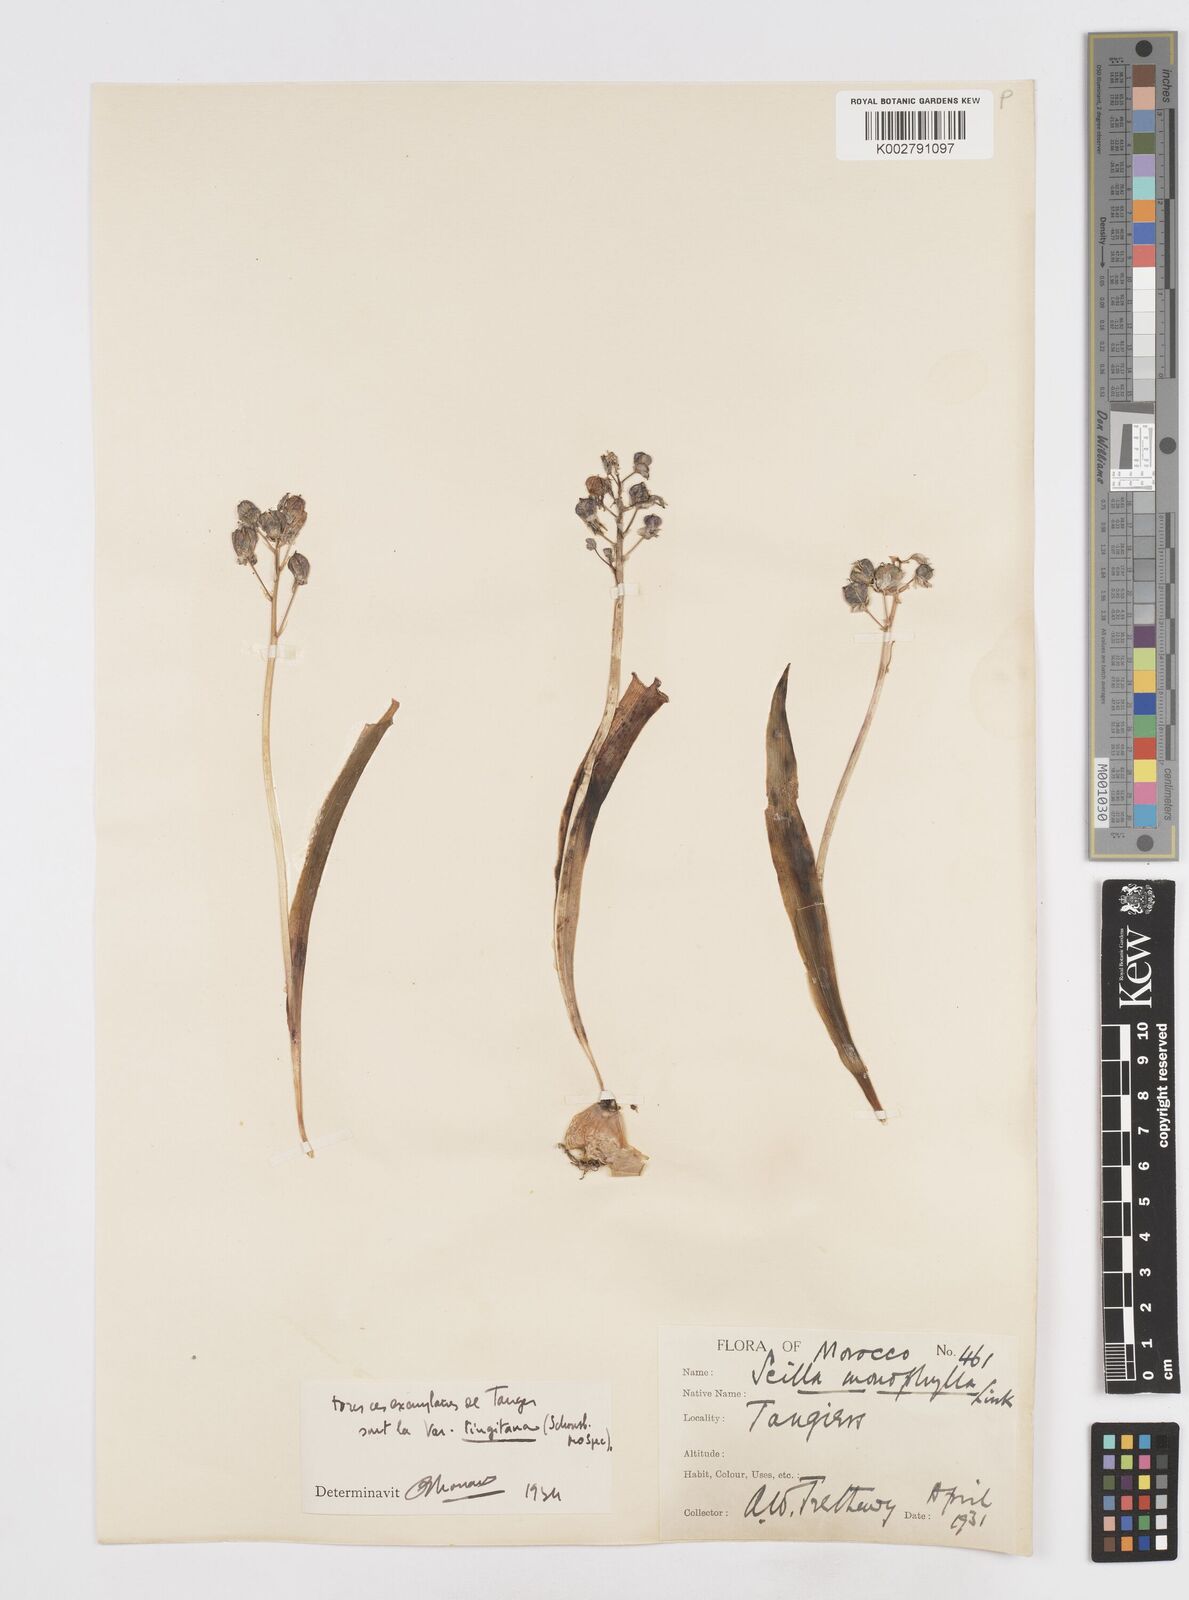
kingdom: Plantae
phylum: Tracheophyta
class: Liliopsida
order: Asparagales
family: Asparagaceae
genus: Scilla
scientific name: Scilla monophyllos
